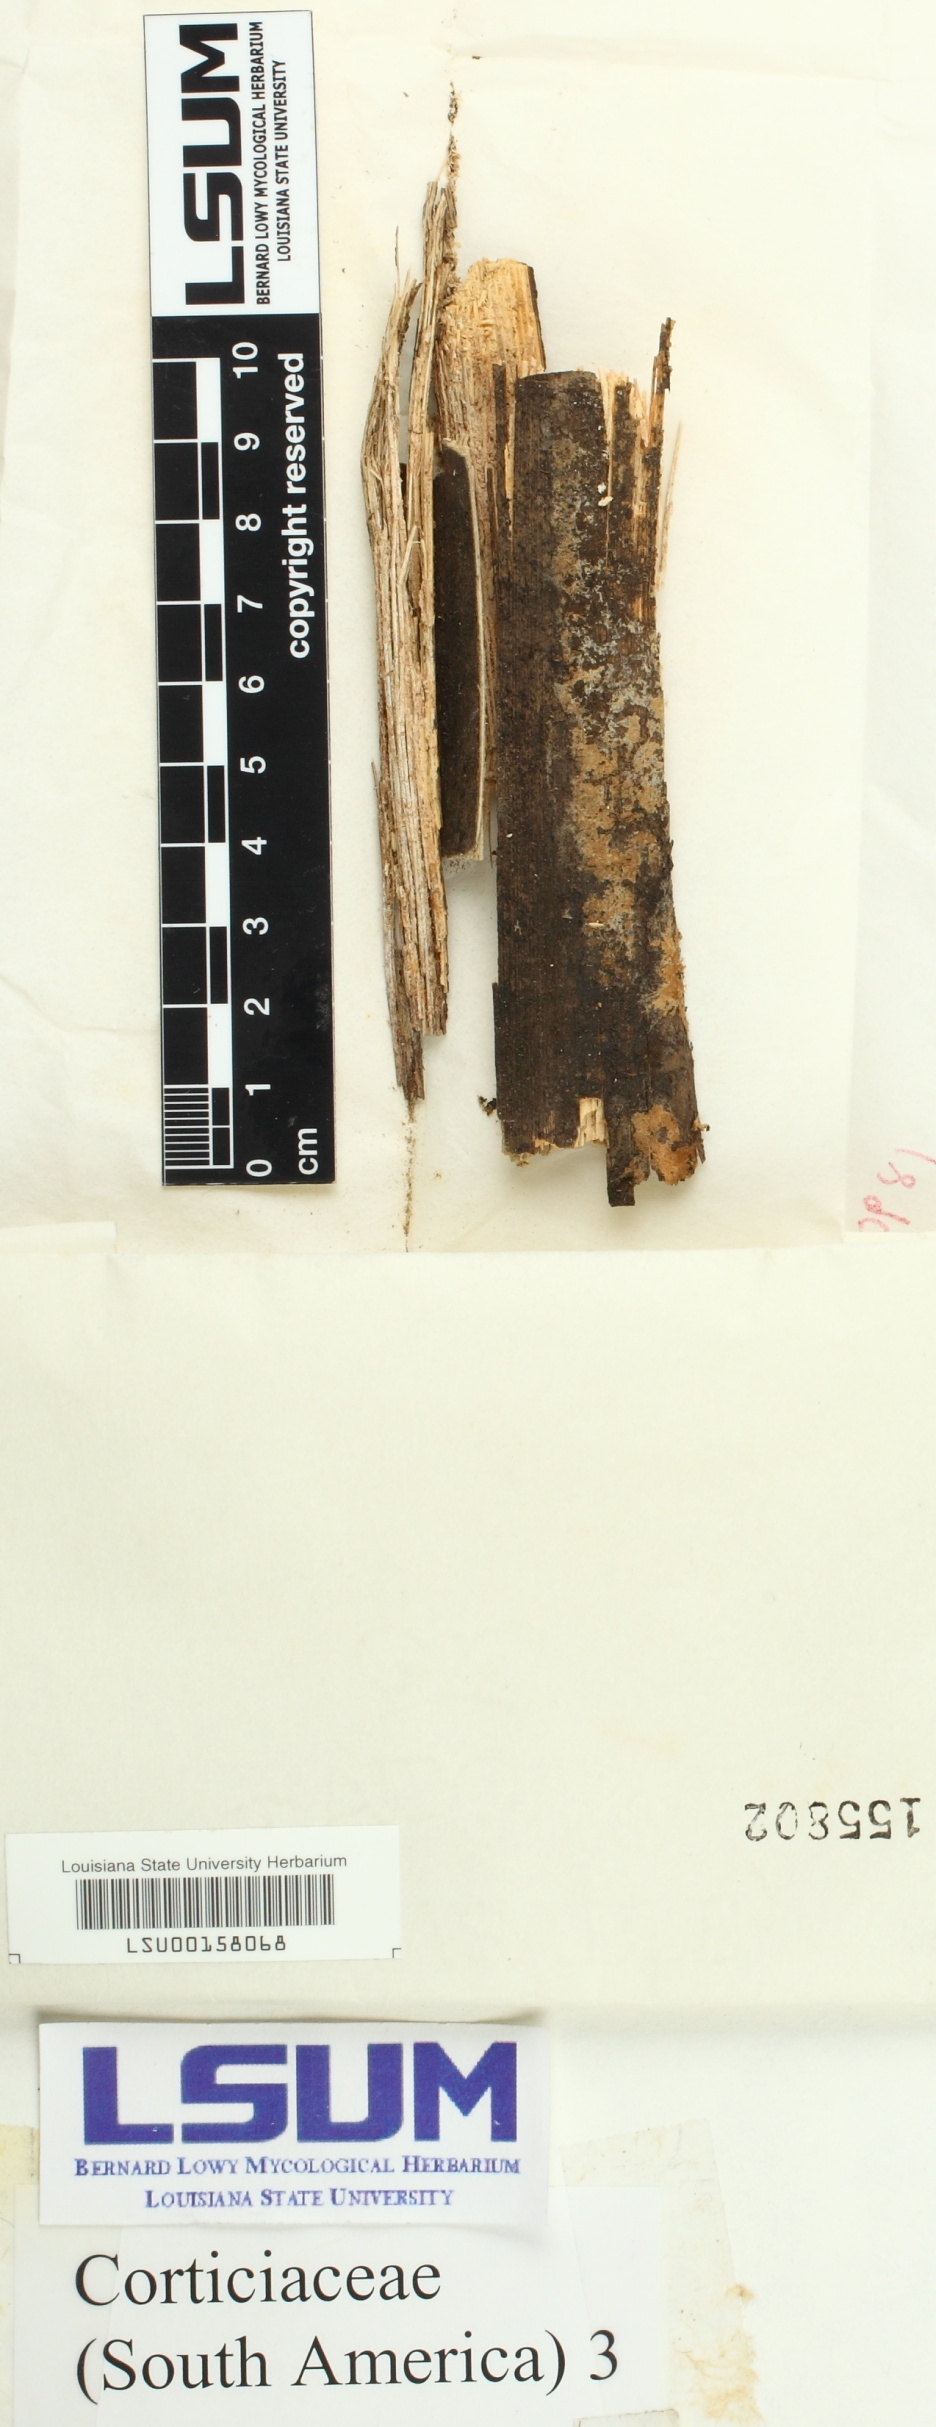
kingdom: Fungi
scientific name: Fungi
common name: Fungi
